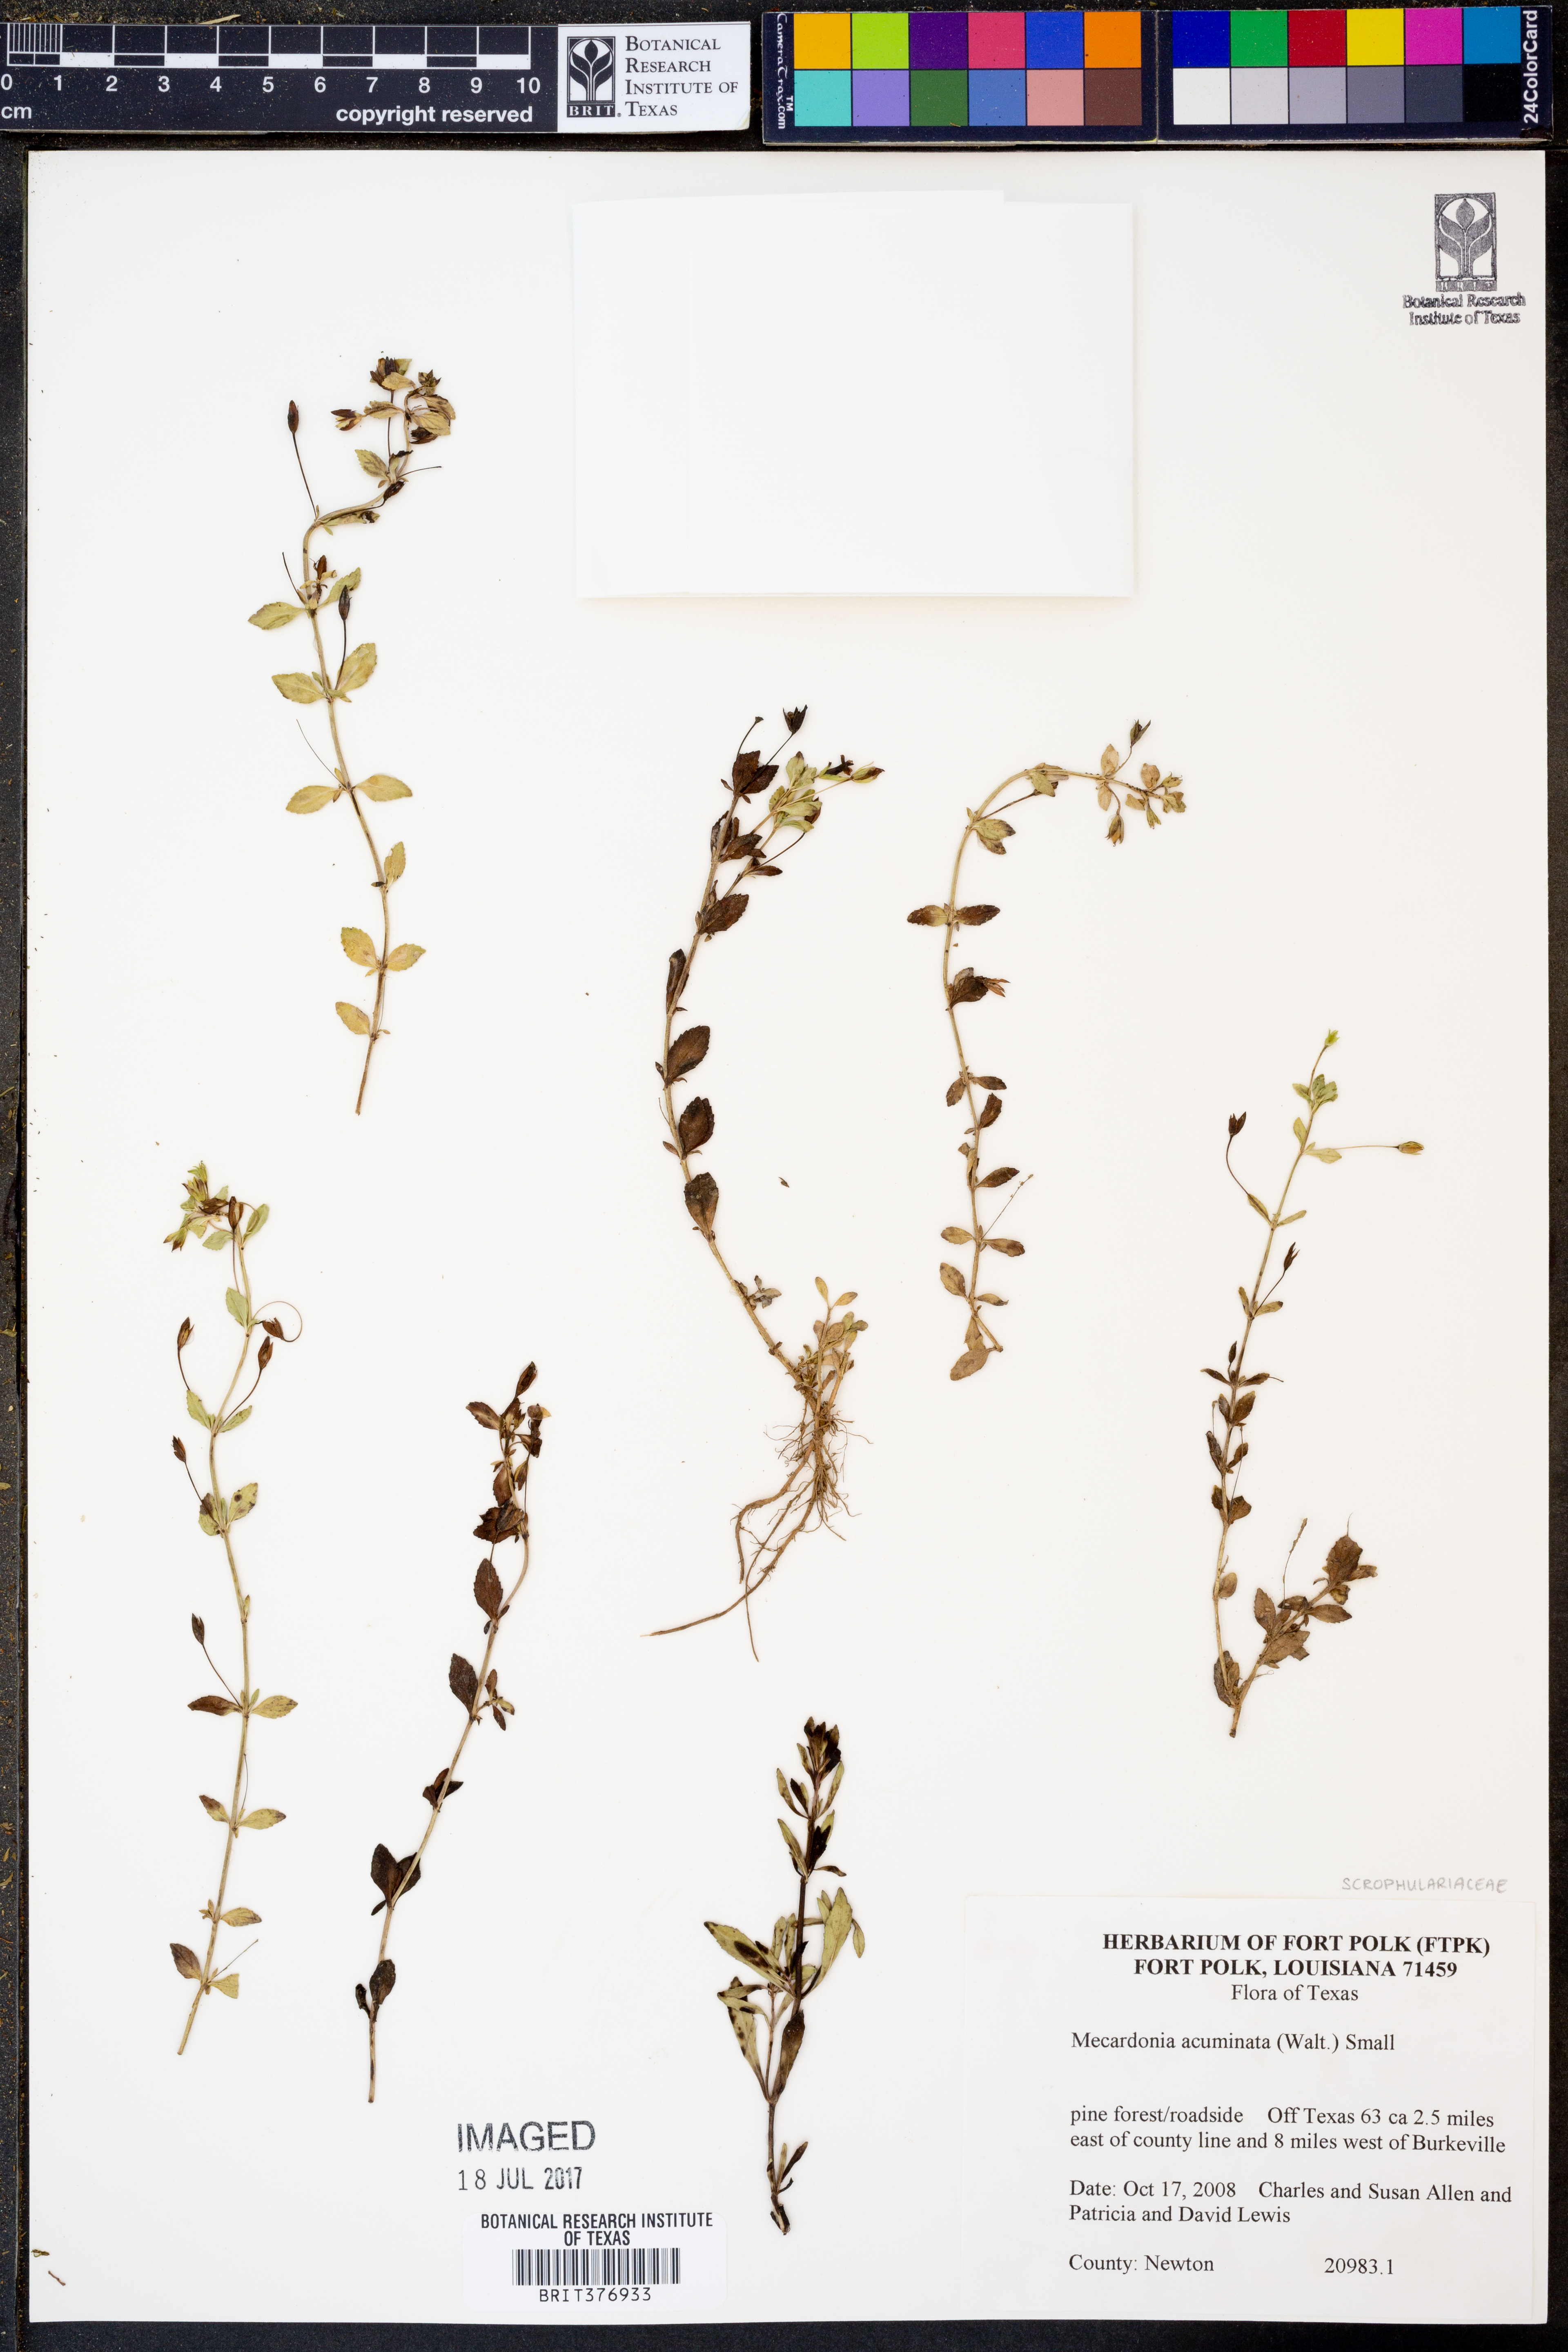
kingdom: Plantae
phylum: Tracheophyta
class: Magnoliopsida
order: Lamiales
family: Plantaginaceae
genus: Mecardonia
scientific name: Mecardonia acuminata
